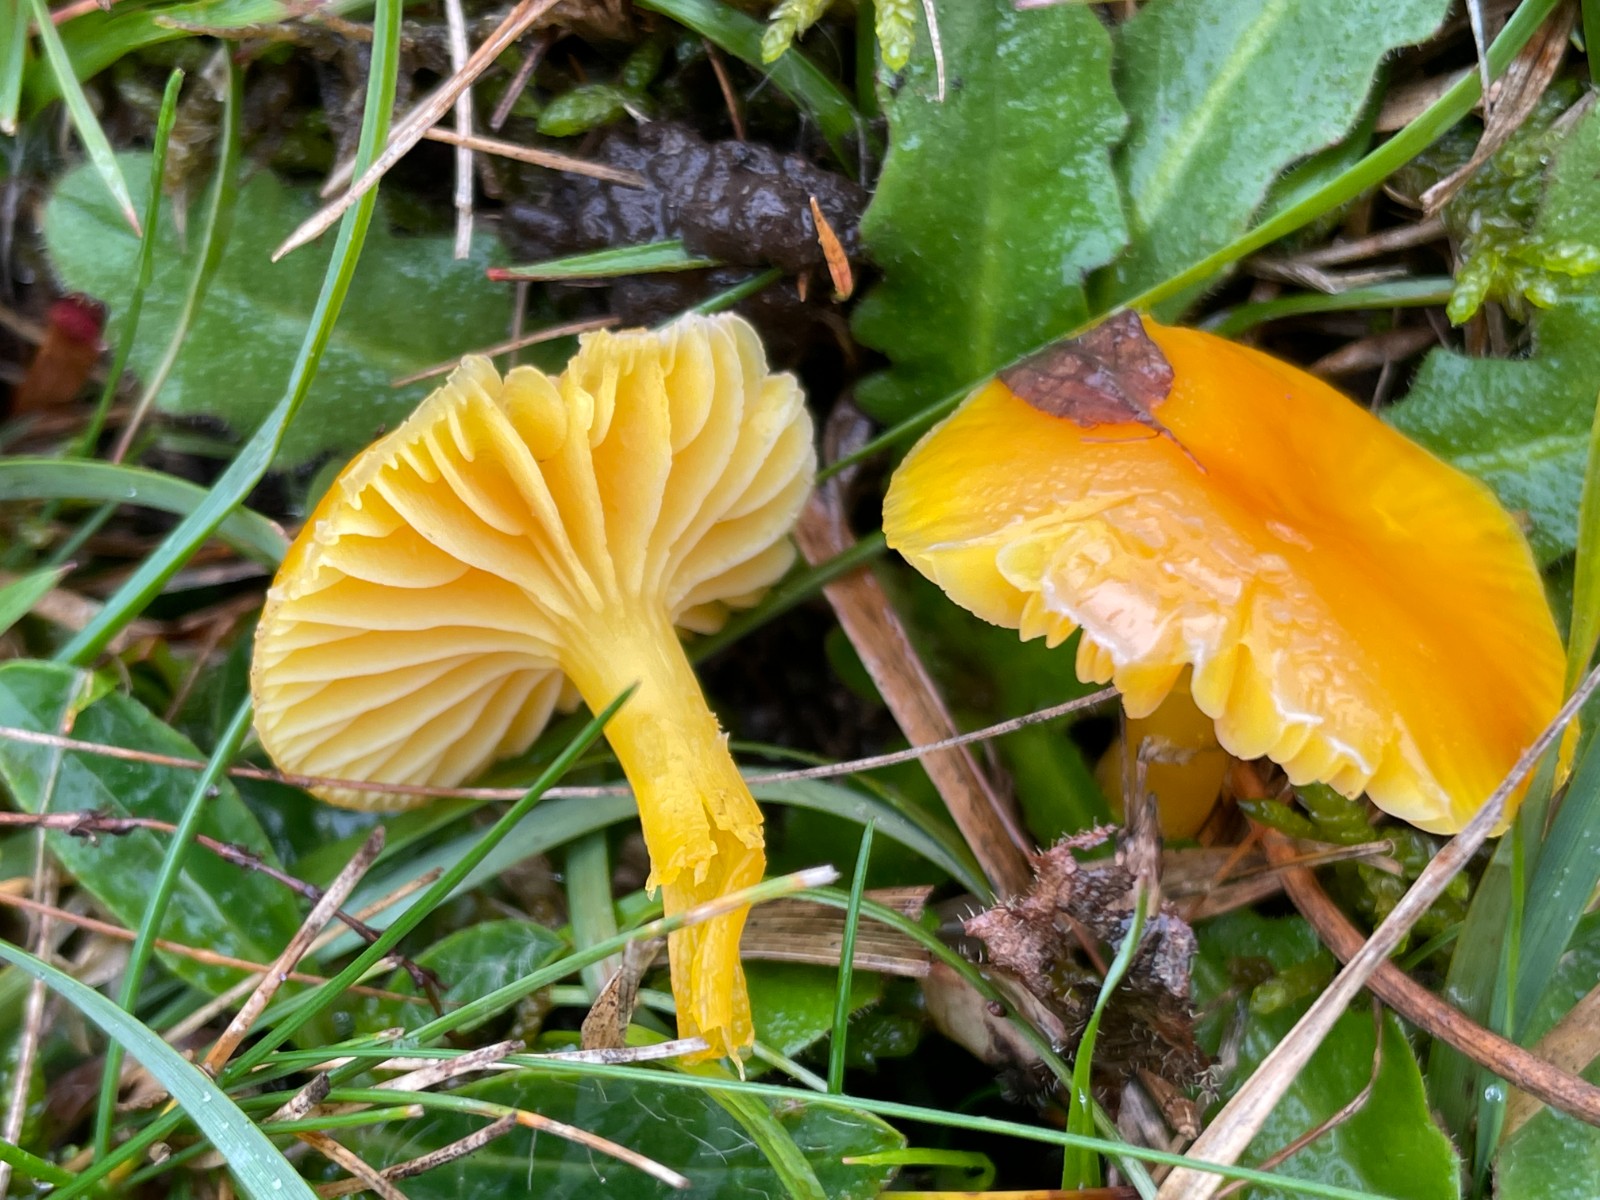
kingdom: Fungi
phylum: Basidiomycota
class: Agaricomycetes
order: Agaricales
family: Hygrophoraceae
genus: Hygrocybe
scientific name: Hygrocybe ceracea
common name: voksgul vokshat
